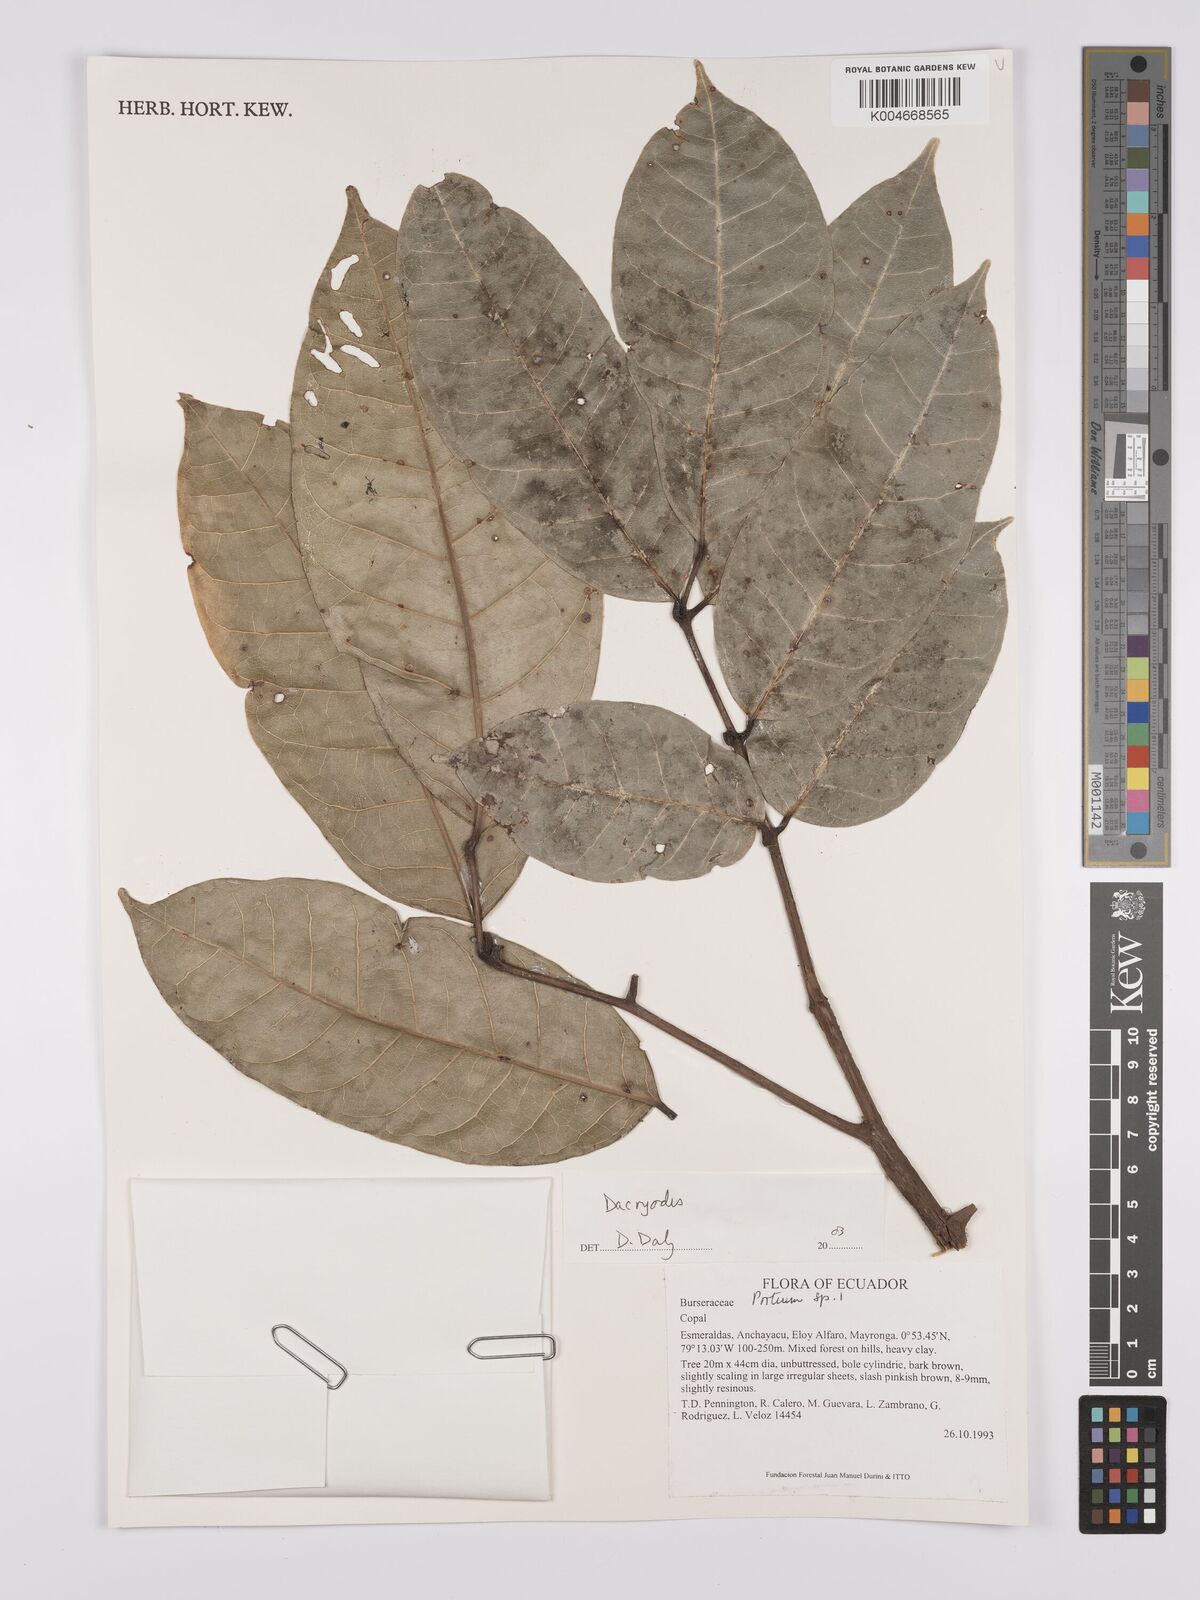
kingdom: Plantae
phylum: Tracheophyta
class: Magnoliopsida
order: Sapindales
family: Burseraceae
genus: Dacryodes
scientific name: Dacryodes
